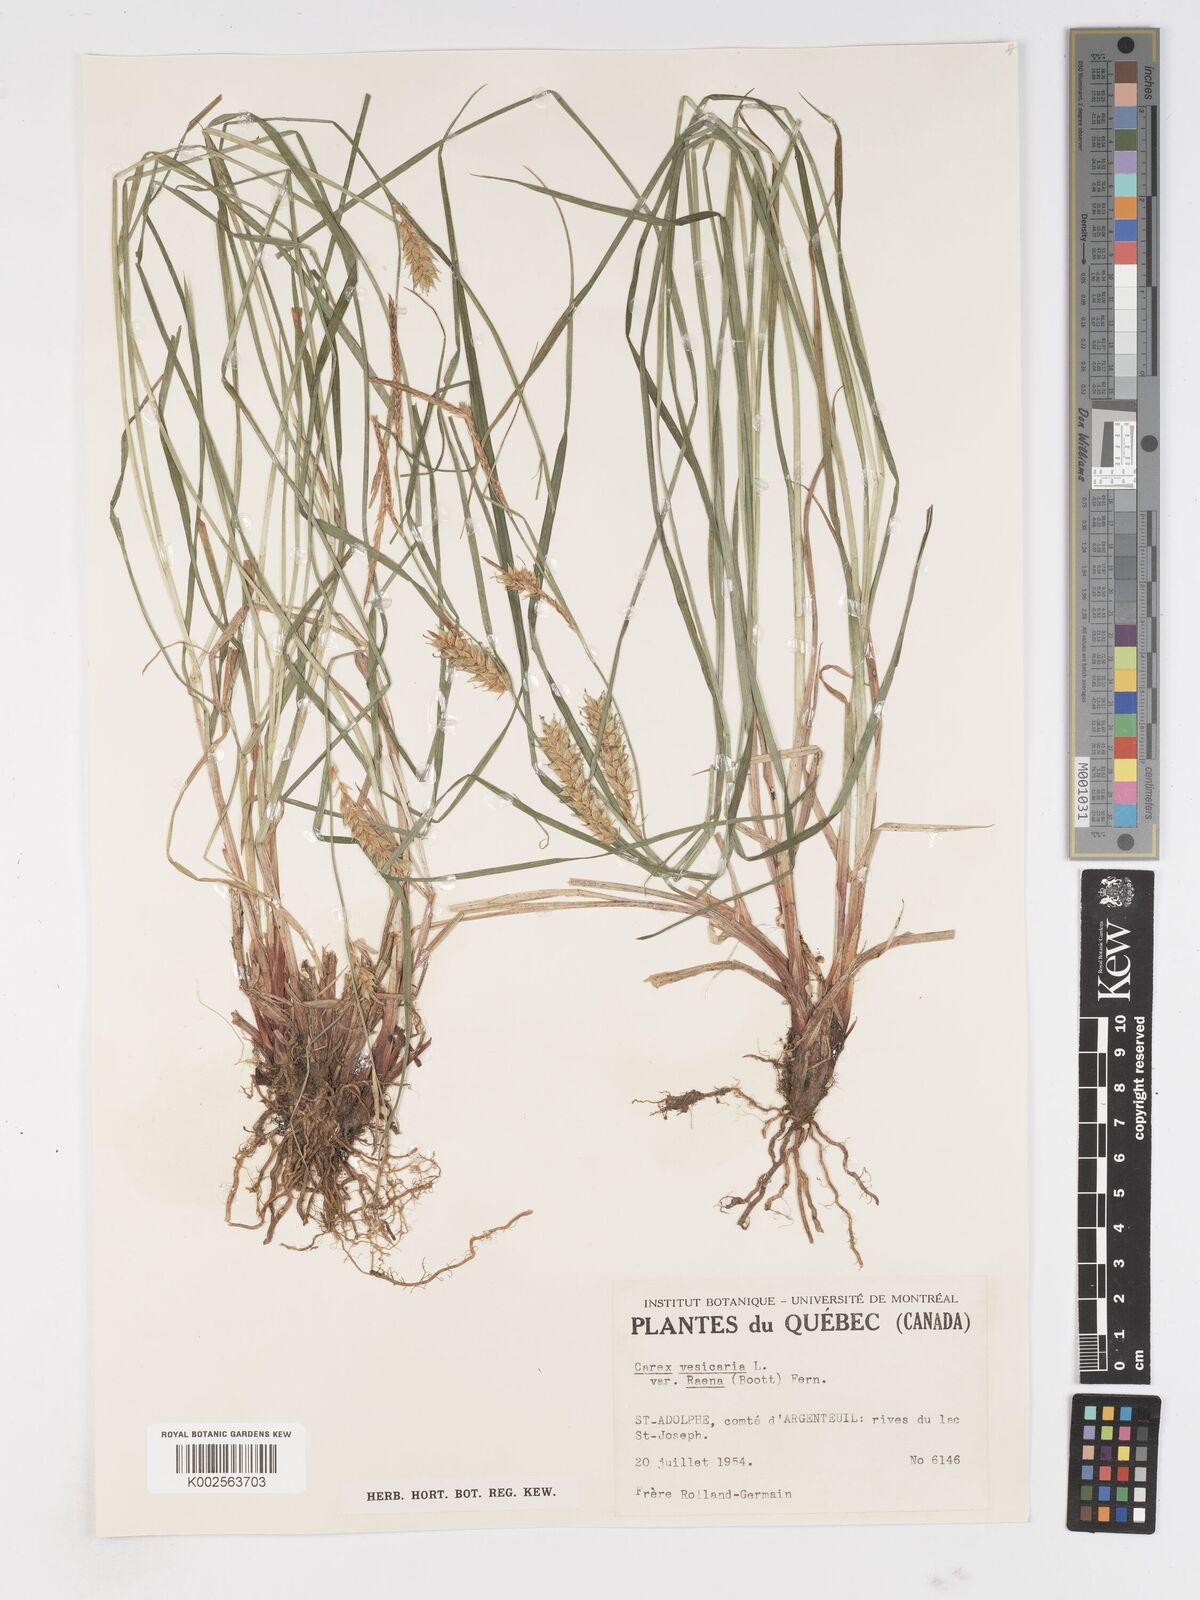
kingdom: Plantae
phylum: Tracheophyta
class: Liliopsida
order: Poales
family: Cyperaceae
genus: Carex
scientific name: Carex vesicaria
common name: Bladder-sedge
